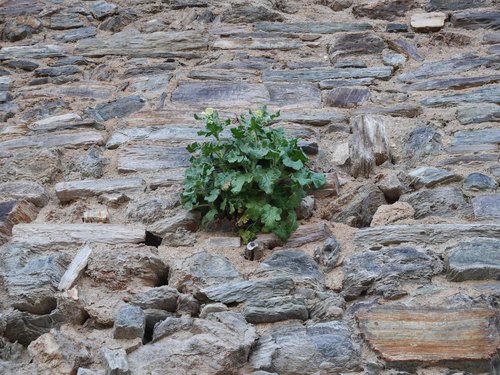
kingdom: Plantae
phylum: Tracheophyta
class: Magnoliopsida
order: Solanales
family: Solanaceae
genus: Hyoscyamus
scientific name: Hyoscyamus albus
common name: White henbane
